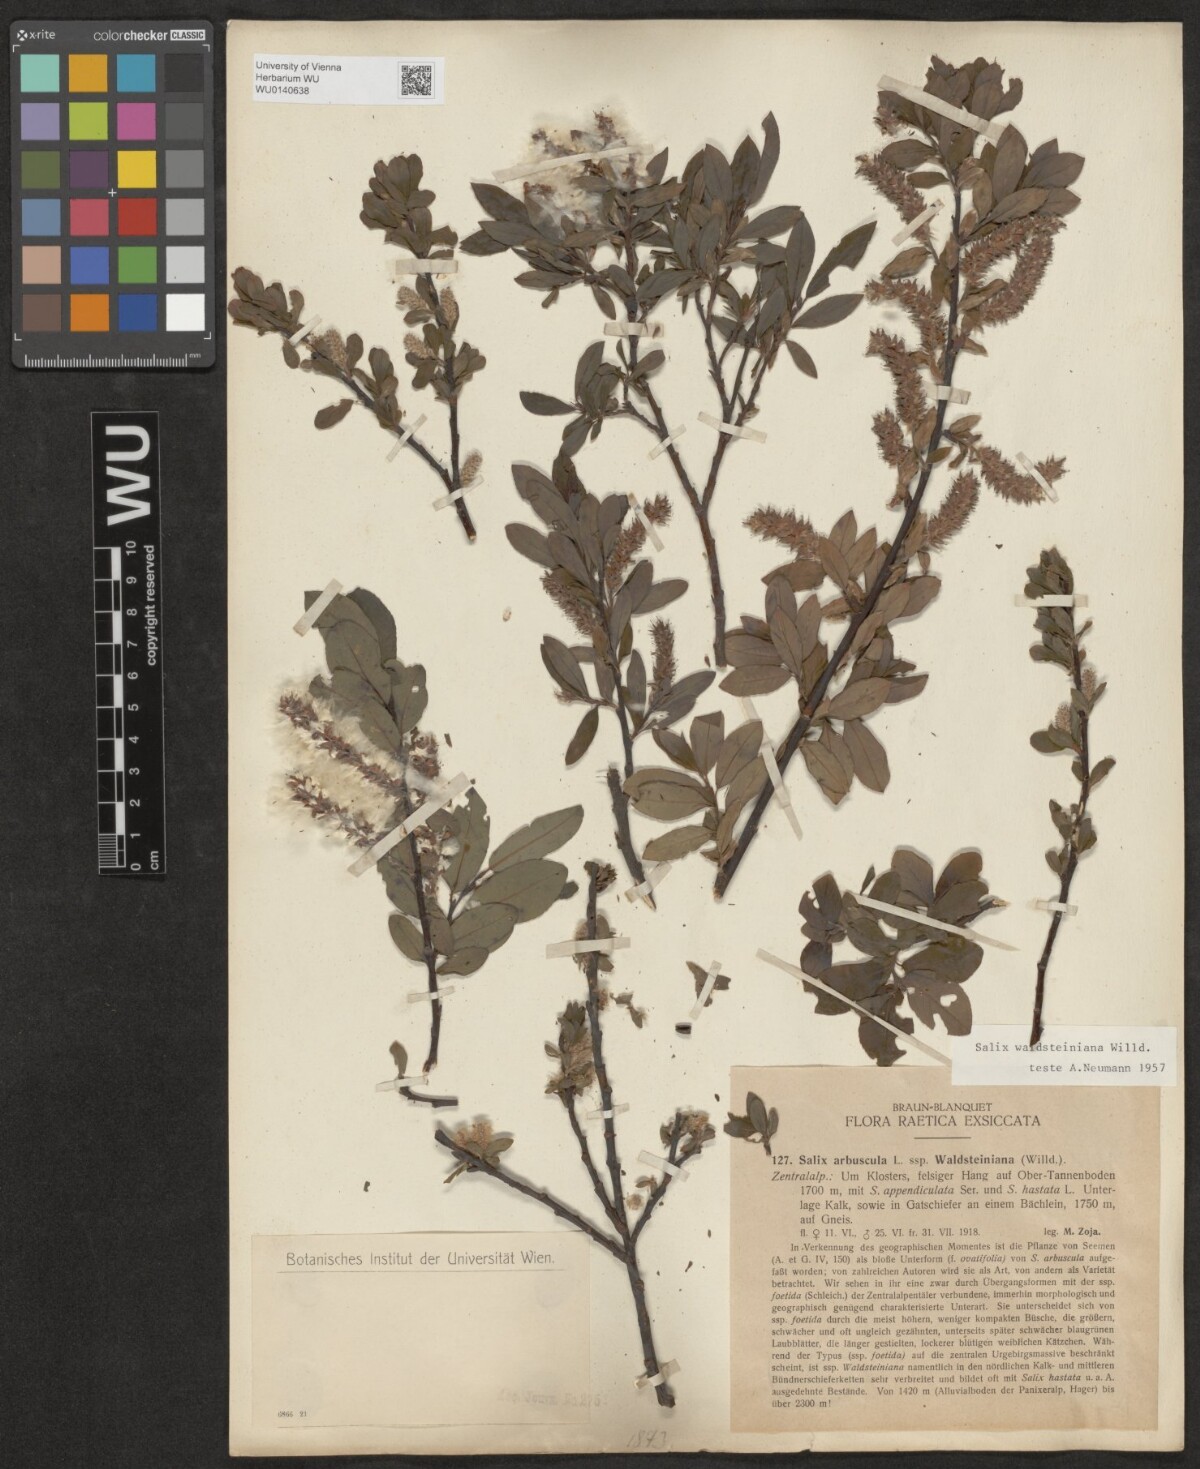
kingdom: Plantae
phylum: Tracheophyta
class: Magnoliopsida
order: Malpighiales
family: Salicaceae
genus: Salix
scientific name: Salix waldsteiniana
